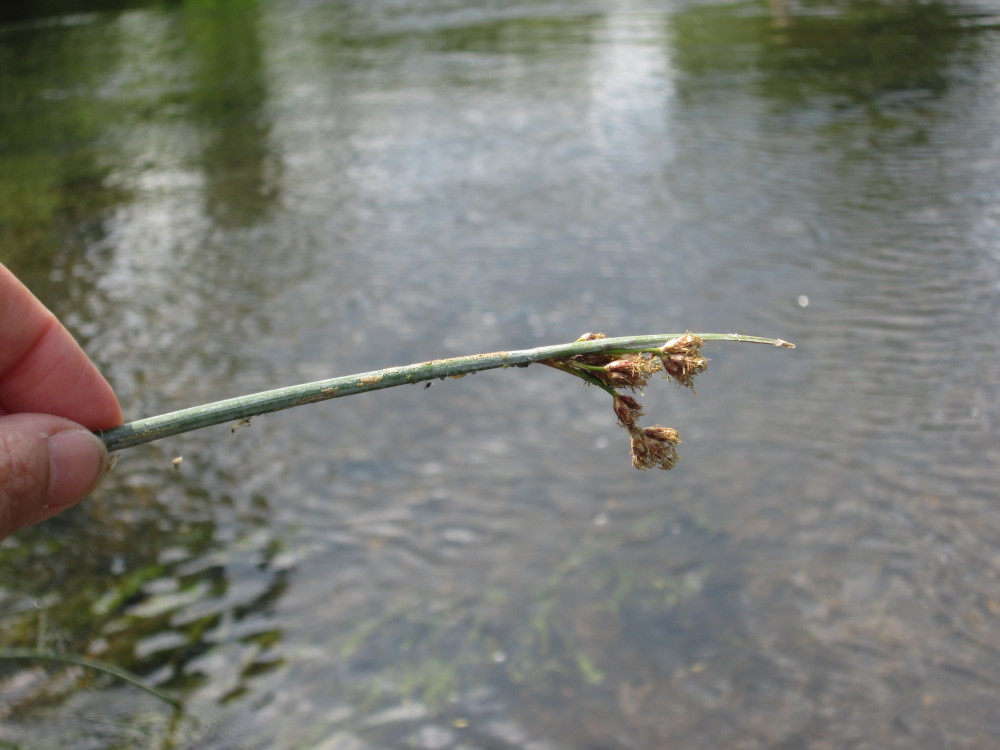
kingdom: Plantae
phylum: Tracheophyta
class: Liliopsida
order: Poales
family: Cyperaceae
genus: Schoenoplectus
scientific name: Schoenoplectus lacustris
